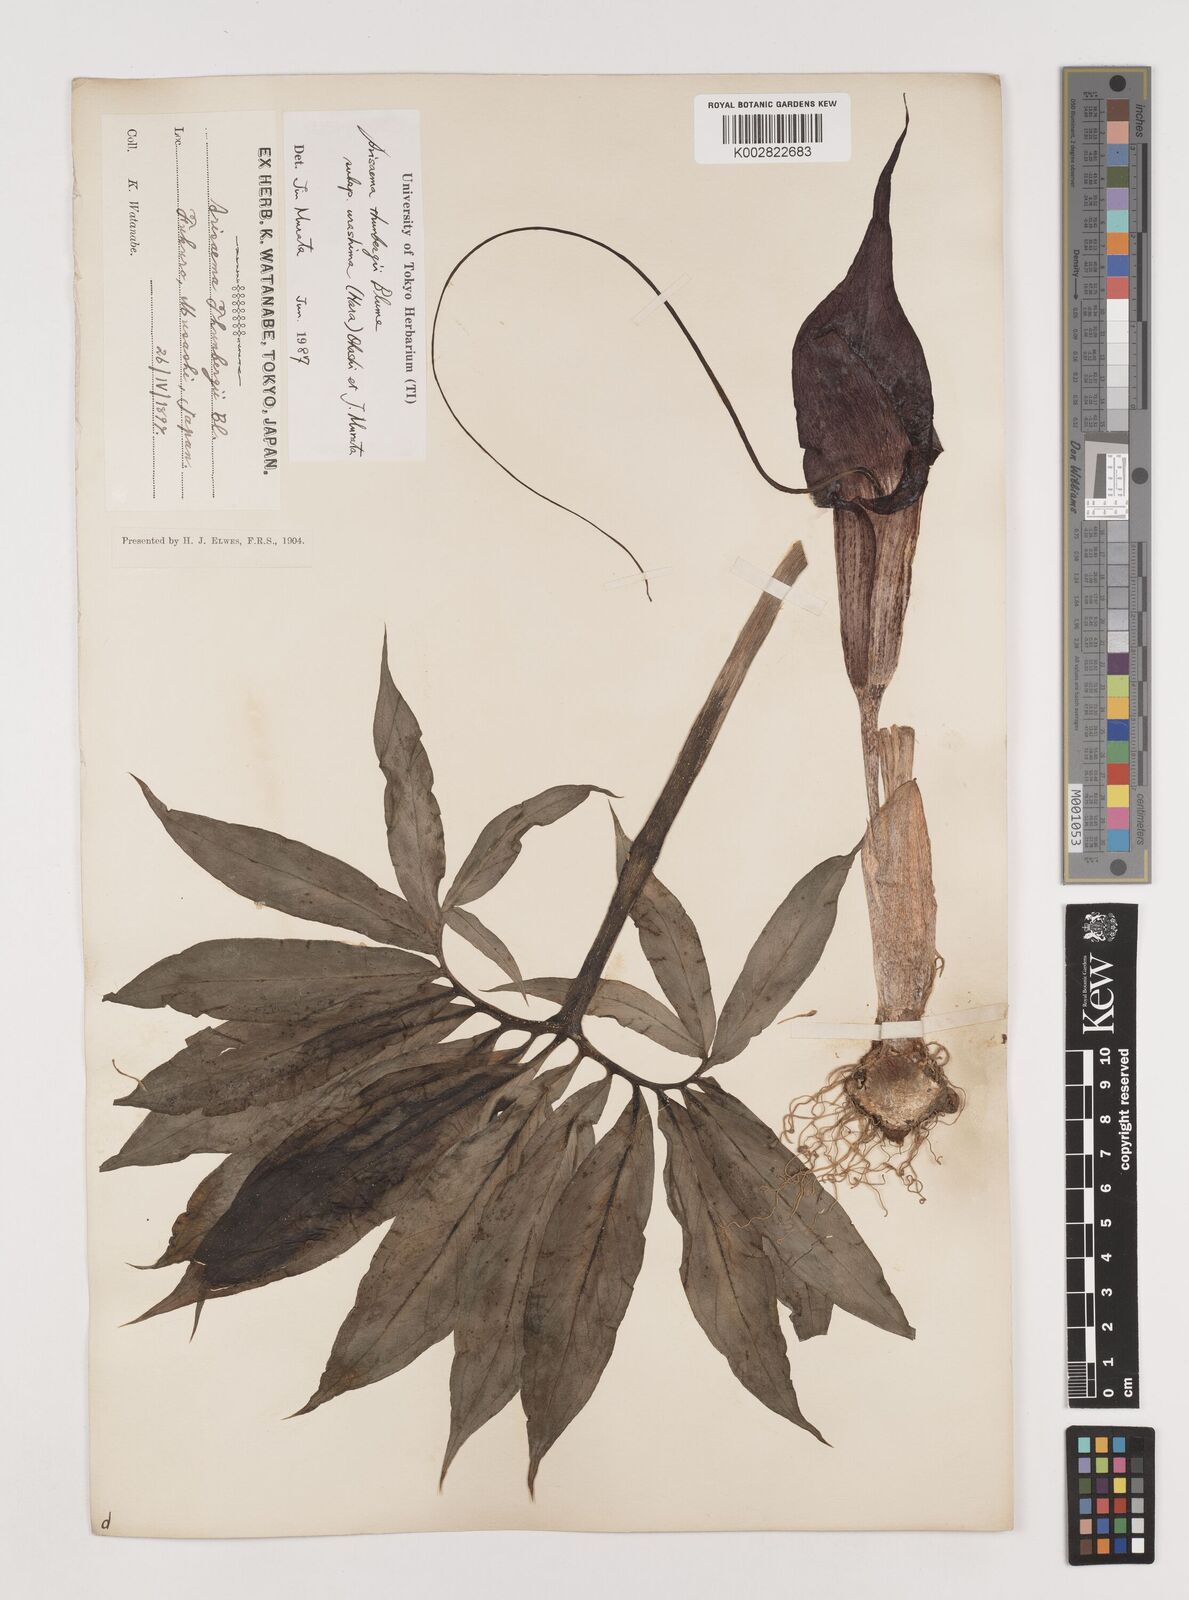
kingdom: Plantae
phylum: Tracheophyta
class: Liliopsida
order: Alismatales
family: Araceae
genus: Arisaema
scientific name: Arisaema thunbergii
